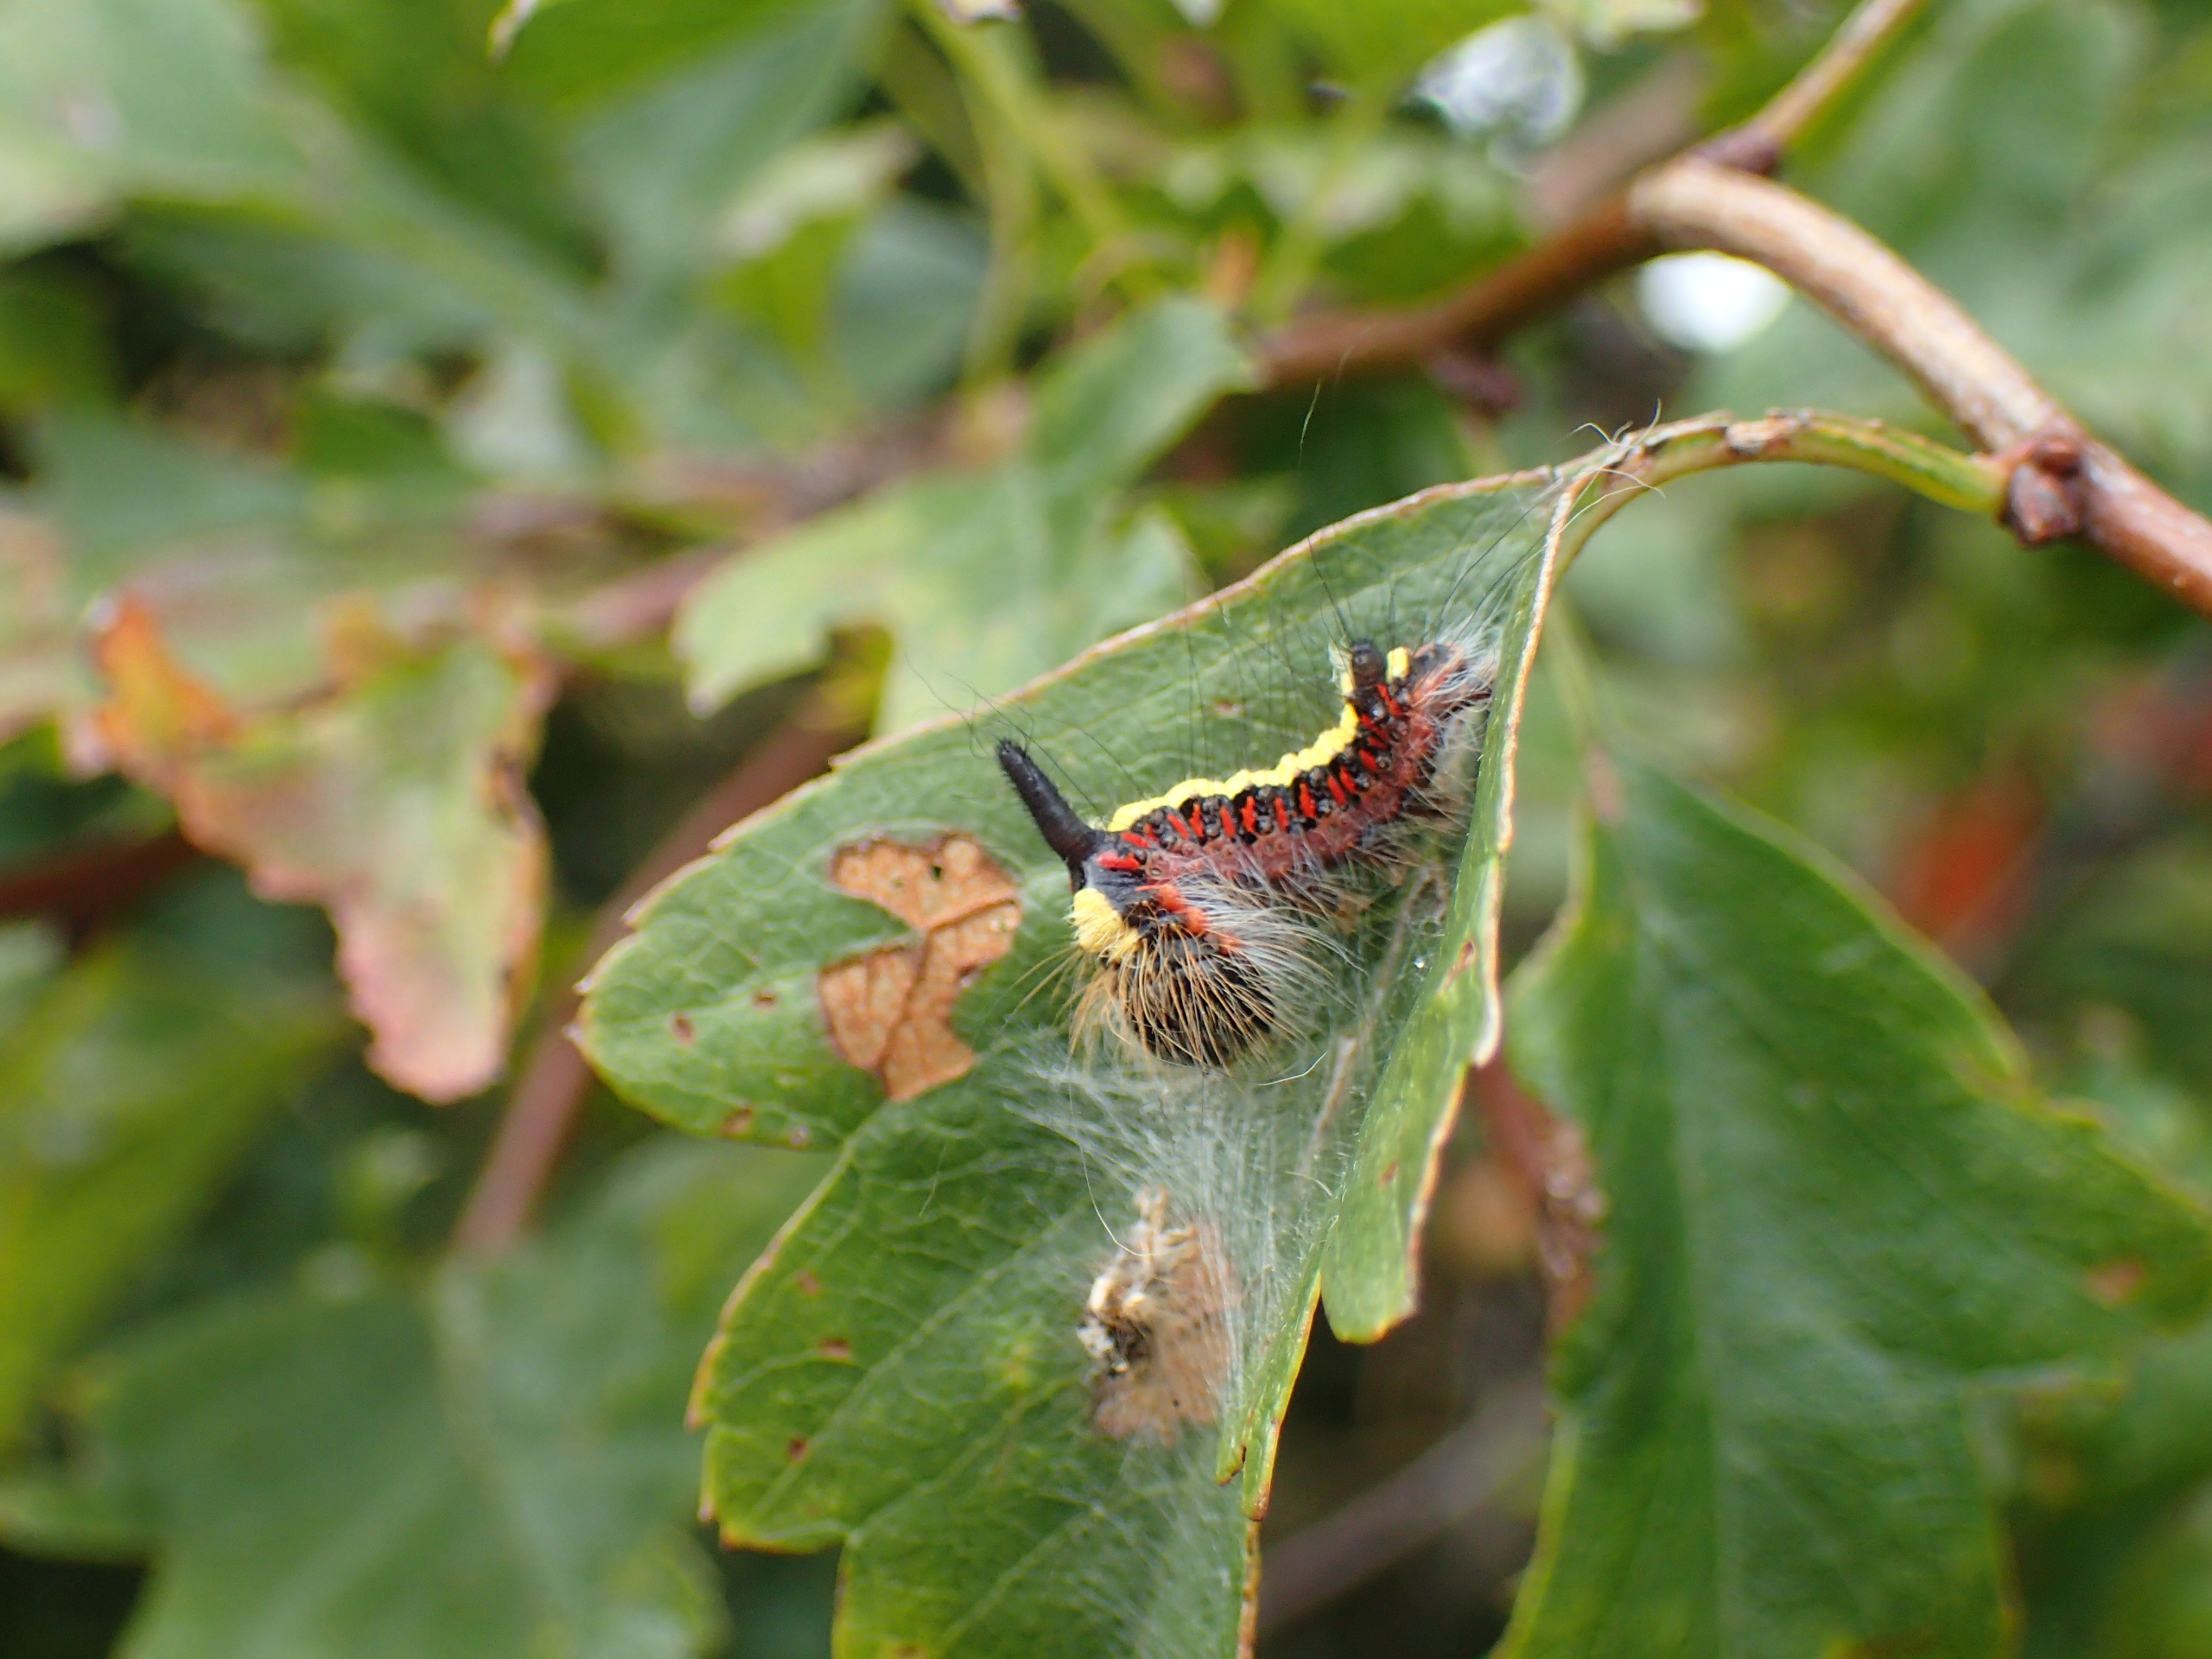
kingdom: Animalia
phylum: Arthropoda
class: Insecta
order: Lepidoptera
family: Noctuidae
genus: Acronicta
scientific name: Acronicta psi
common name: Psi-ugle
